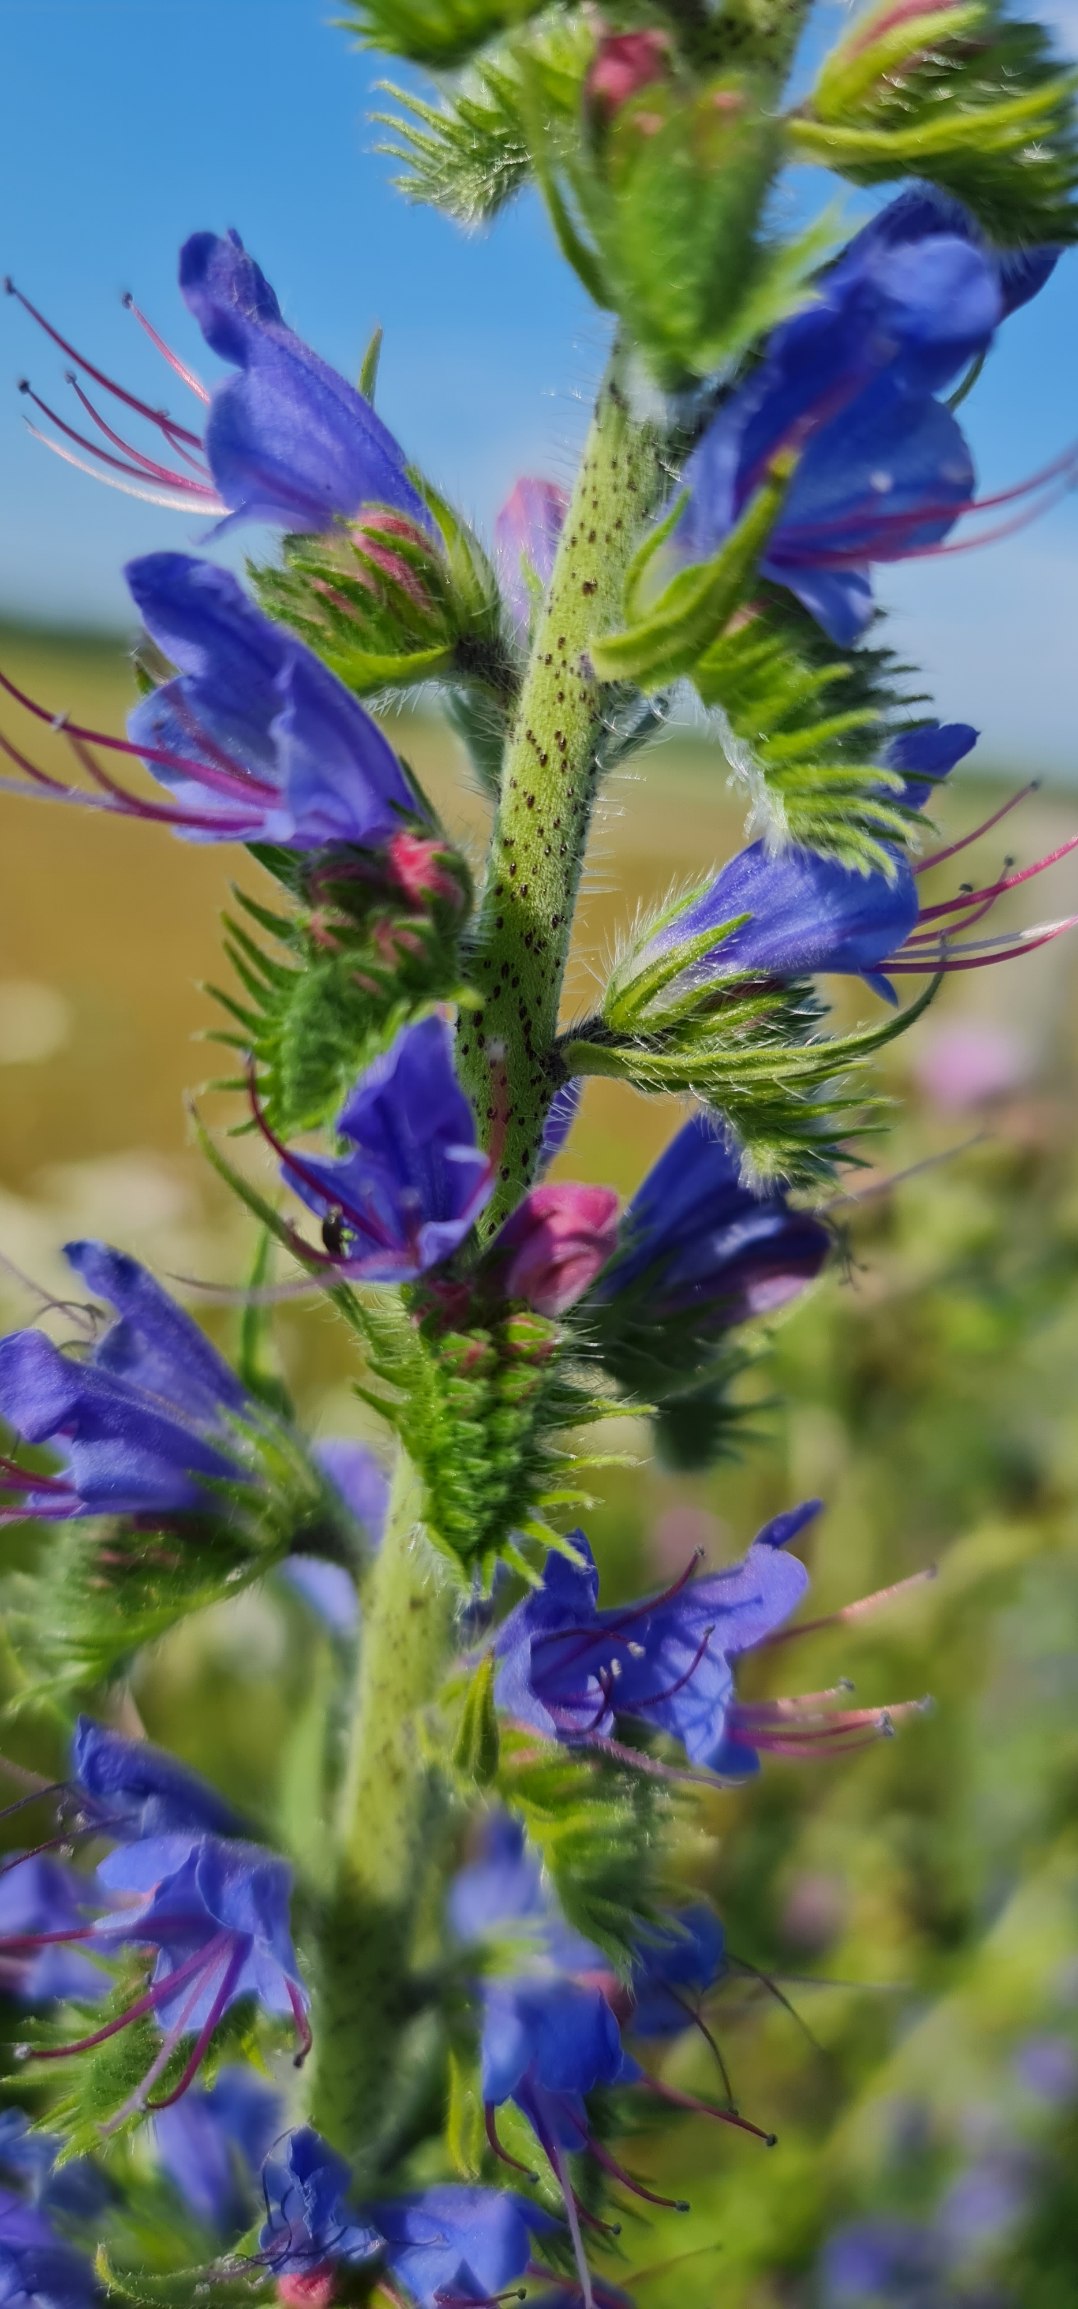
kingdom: Plantae
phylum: Tracheophyta
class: Magnoliopsida
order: Boraginales
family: Boraginaceae
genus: Echium
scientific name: Echium vulgare
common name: Slangehoved
